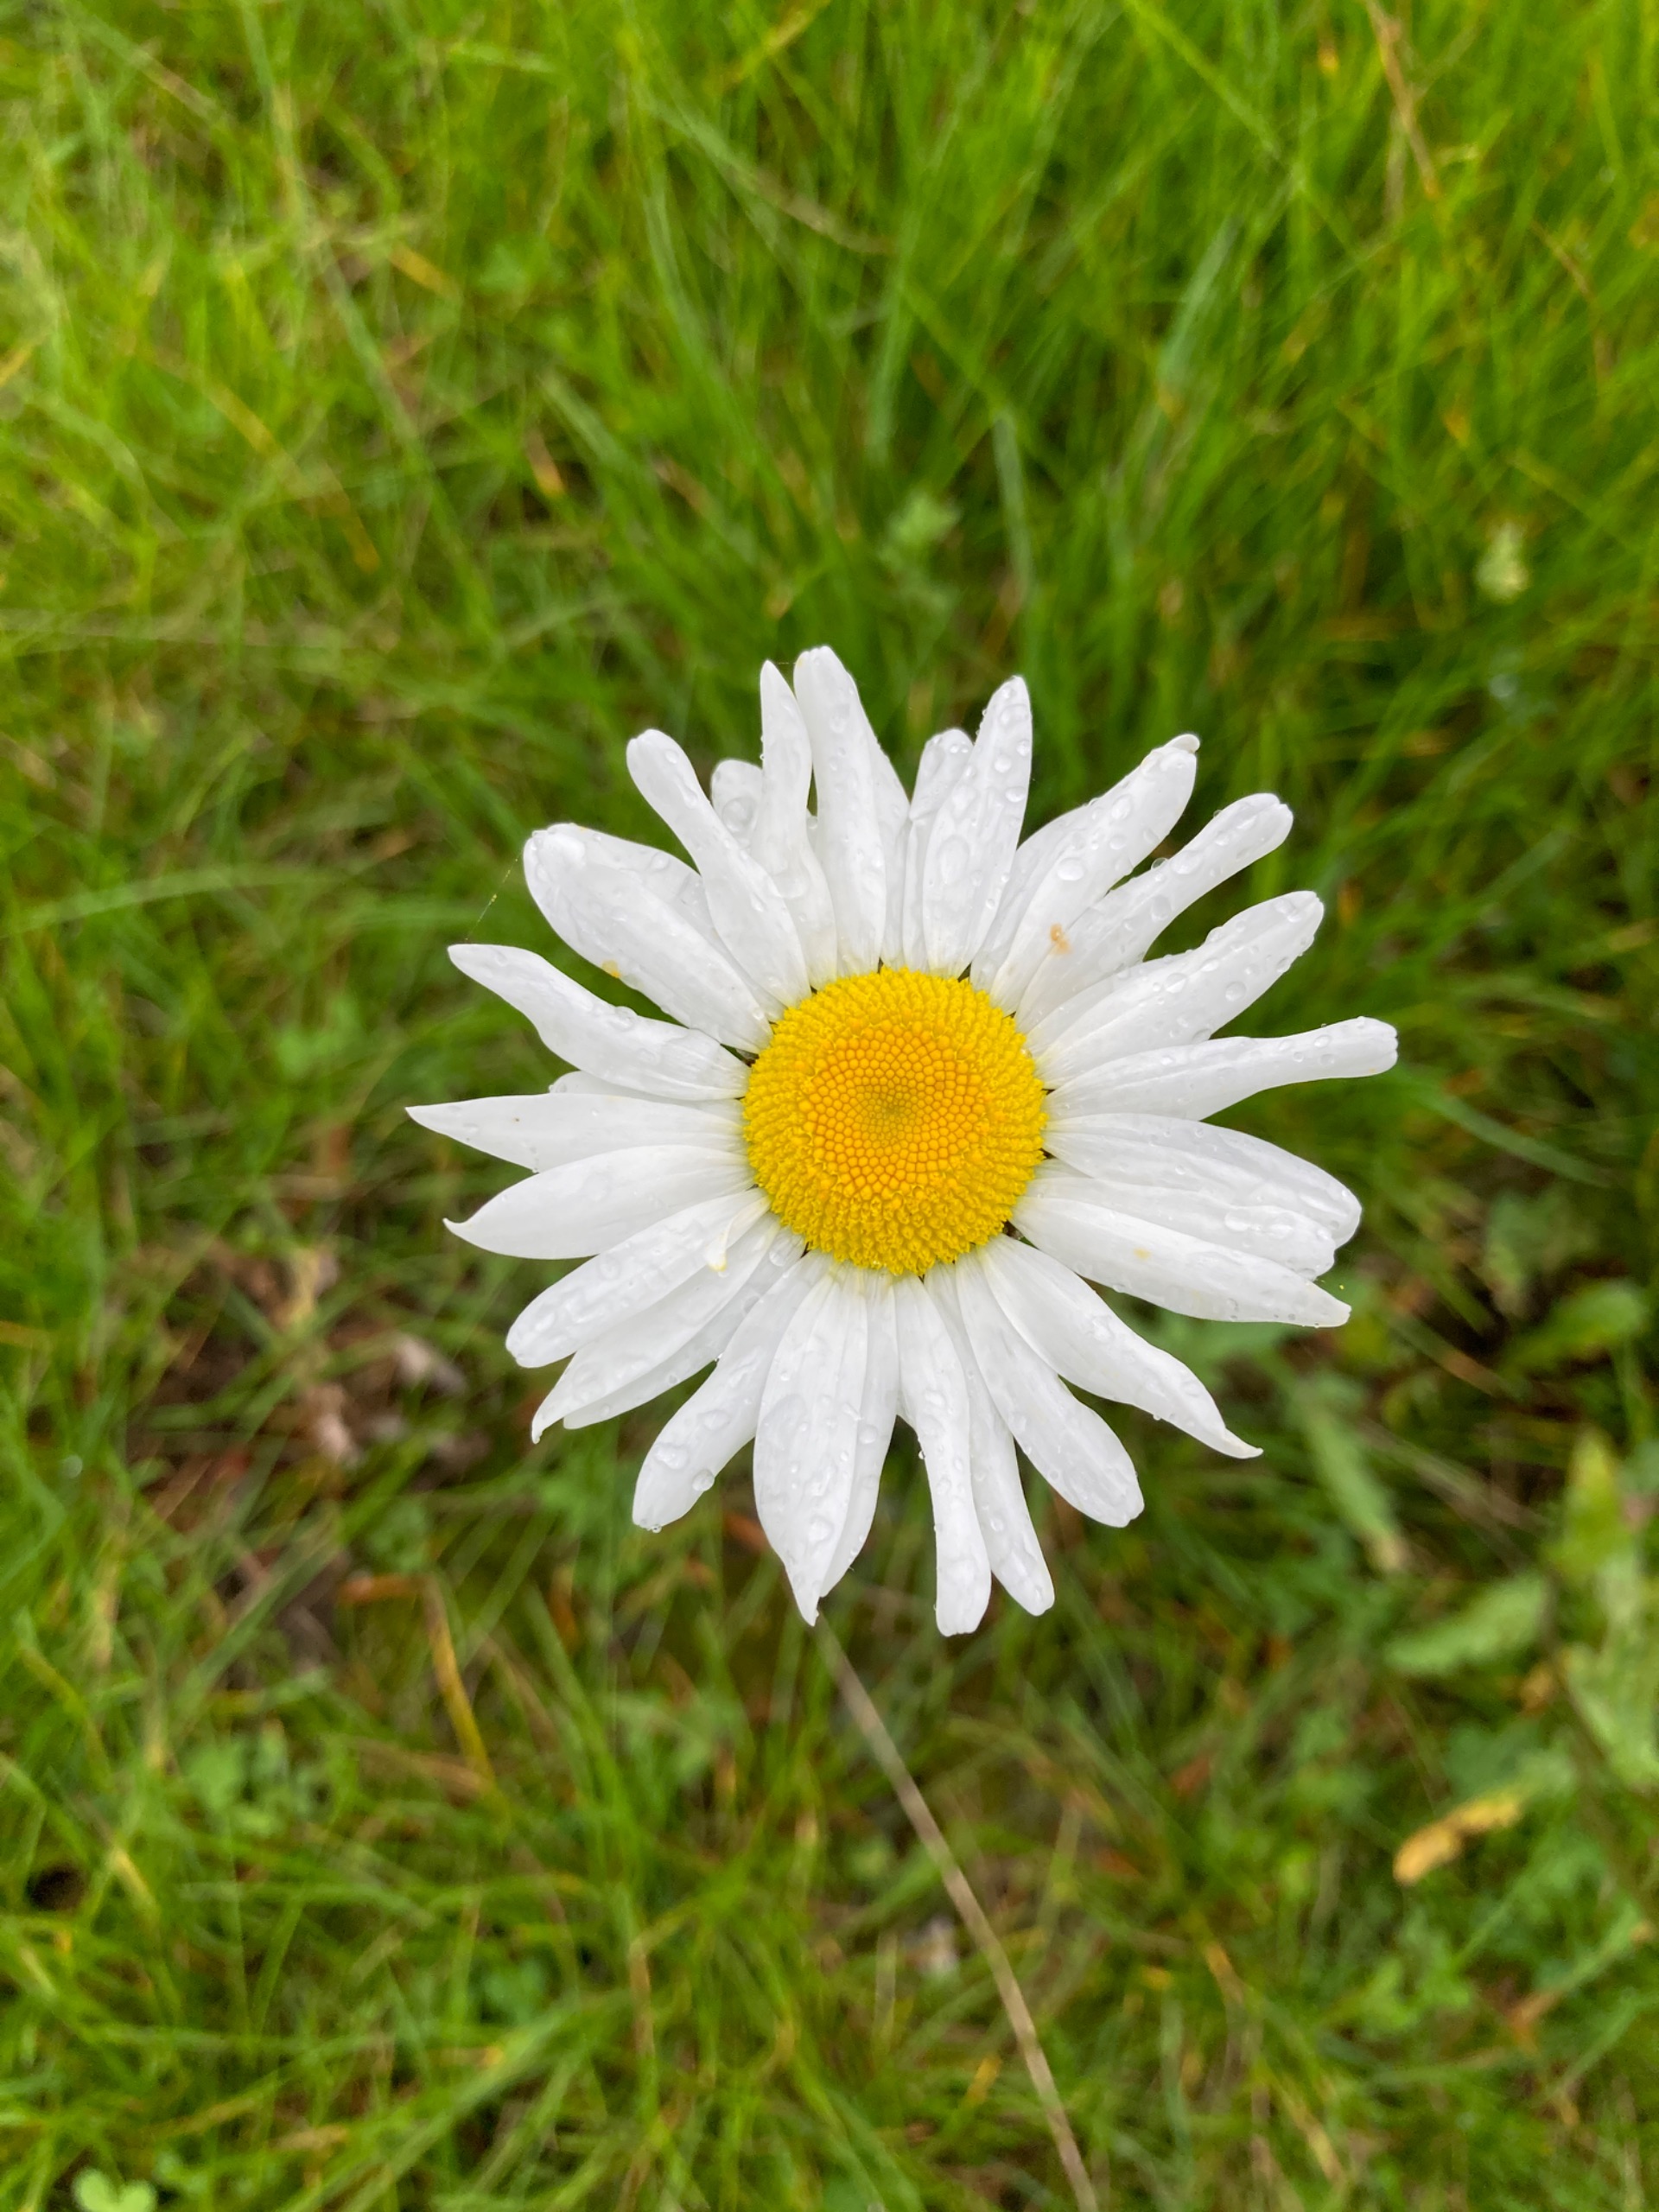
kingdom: Plantae
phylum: Tracheophyta
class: Magnoliopsida
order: Asterales
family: Asteraceae
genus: Leucanthemum
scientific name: Leucanthemum vulgare
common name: Hvid okseøje
